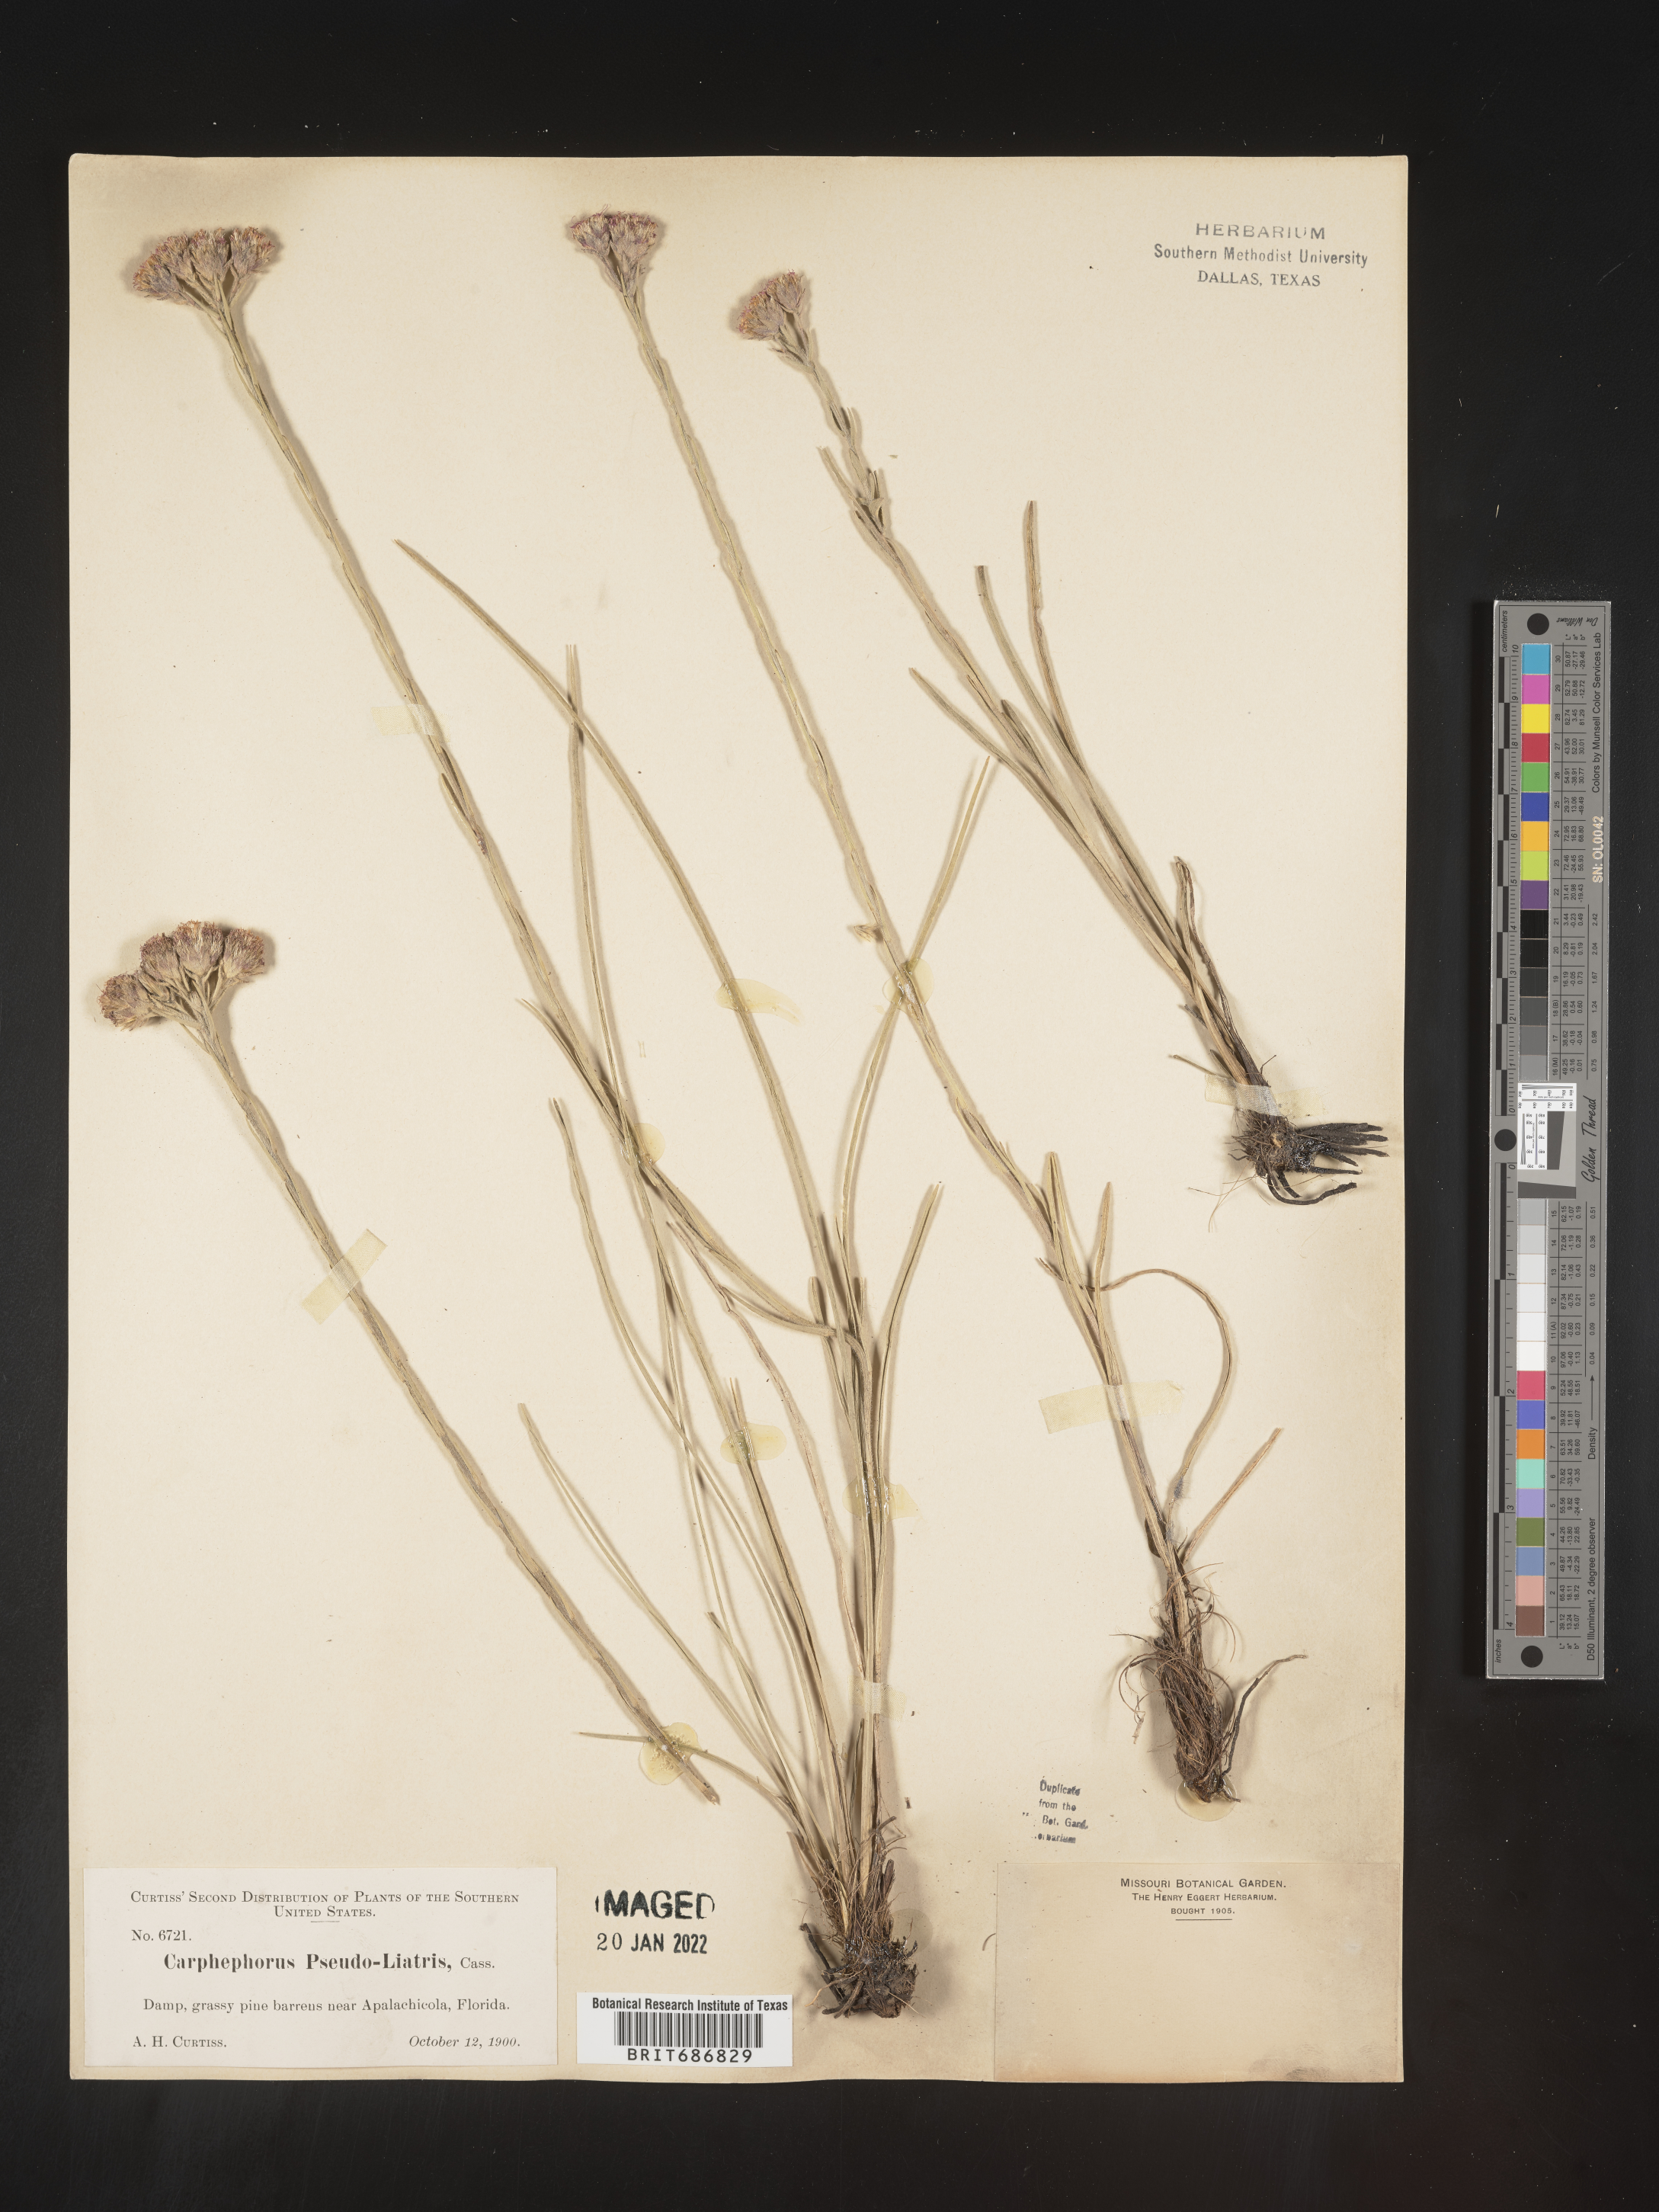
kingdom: Plantae
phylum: Tracheophyta
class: Magnoliopsida
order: Asterales
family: Asteraceae
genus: Carphephorus
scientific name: Carphephorus pseudoliatris
